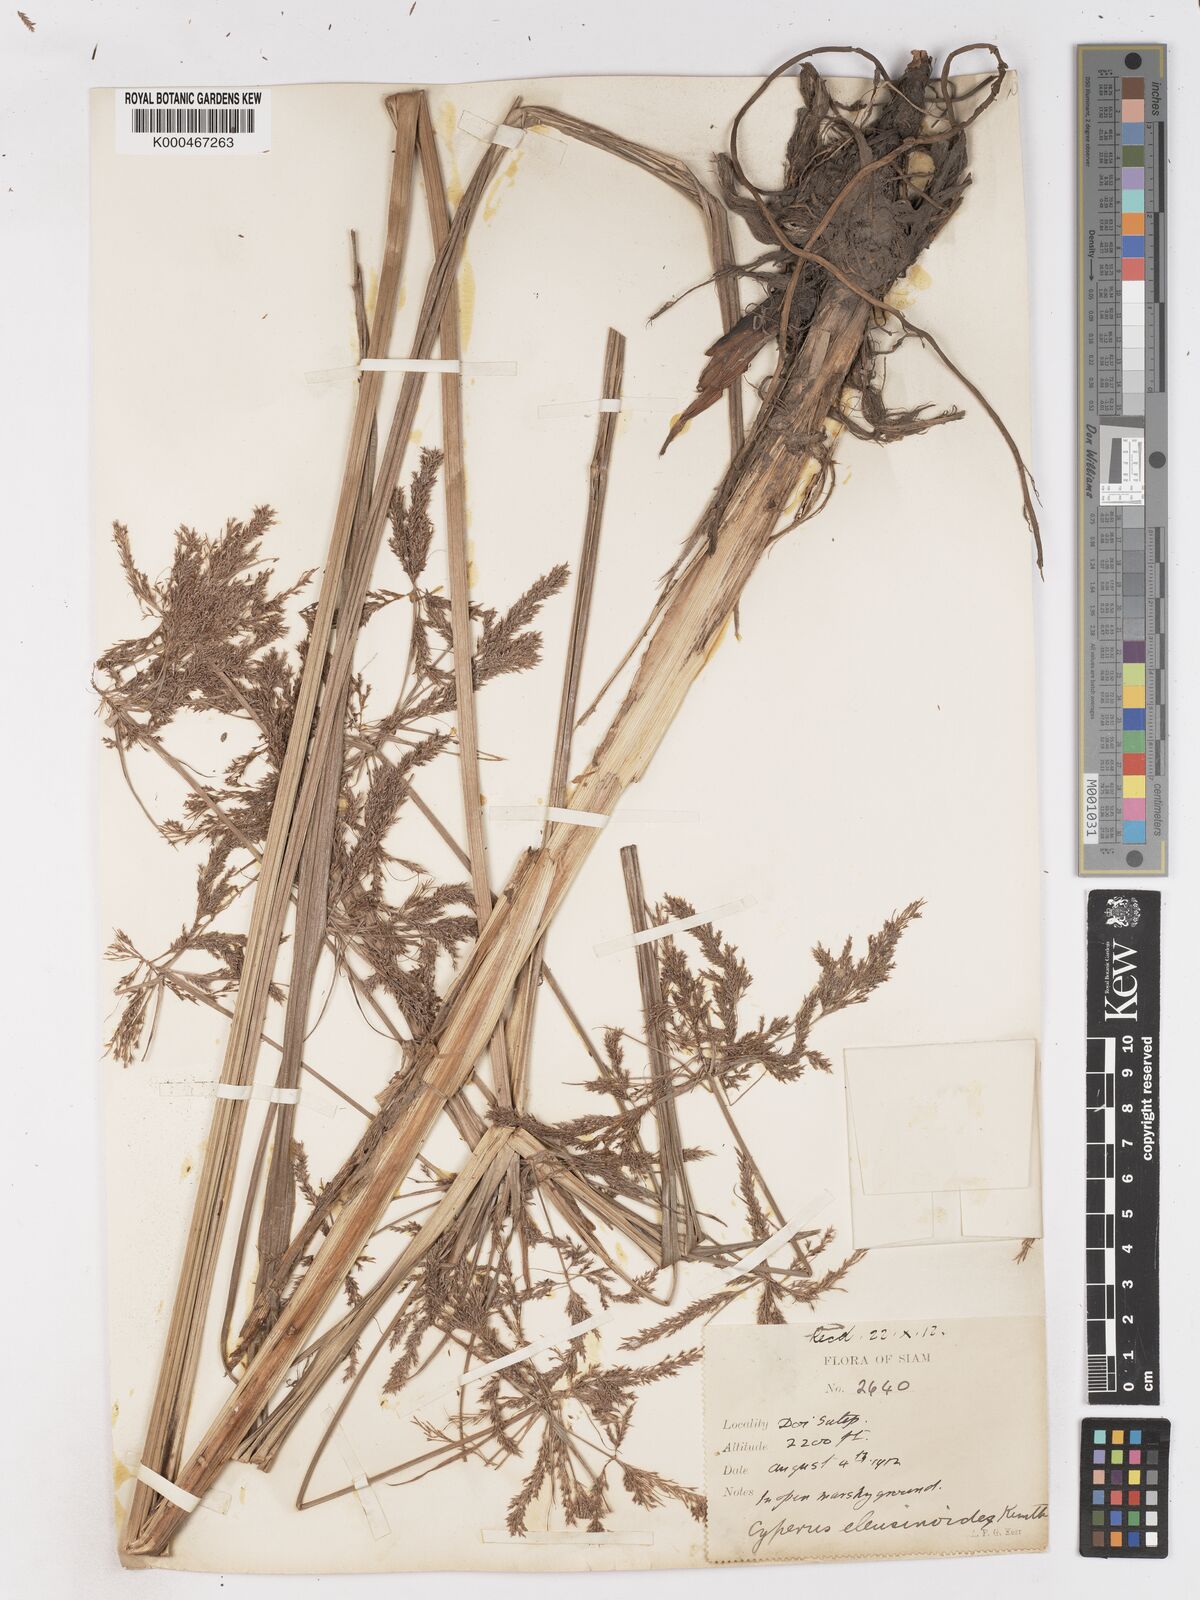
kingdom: Plantae
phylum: Tracheophyta
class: Liliopsida
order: Poales
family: Cyperaceae
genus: Cyperus
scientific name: Cyperus nutans
